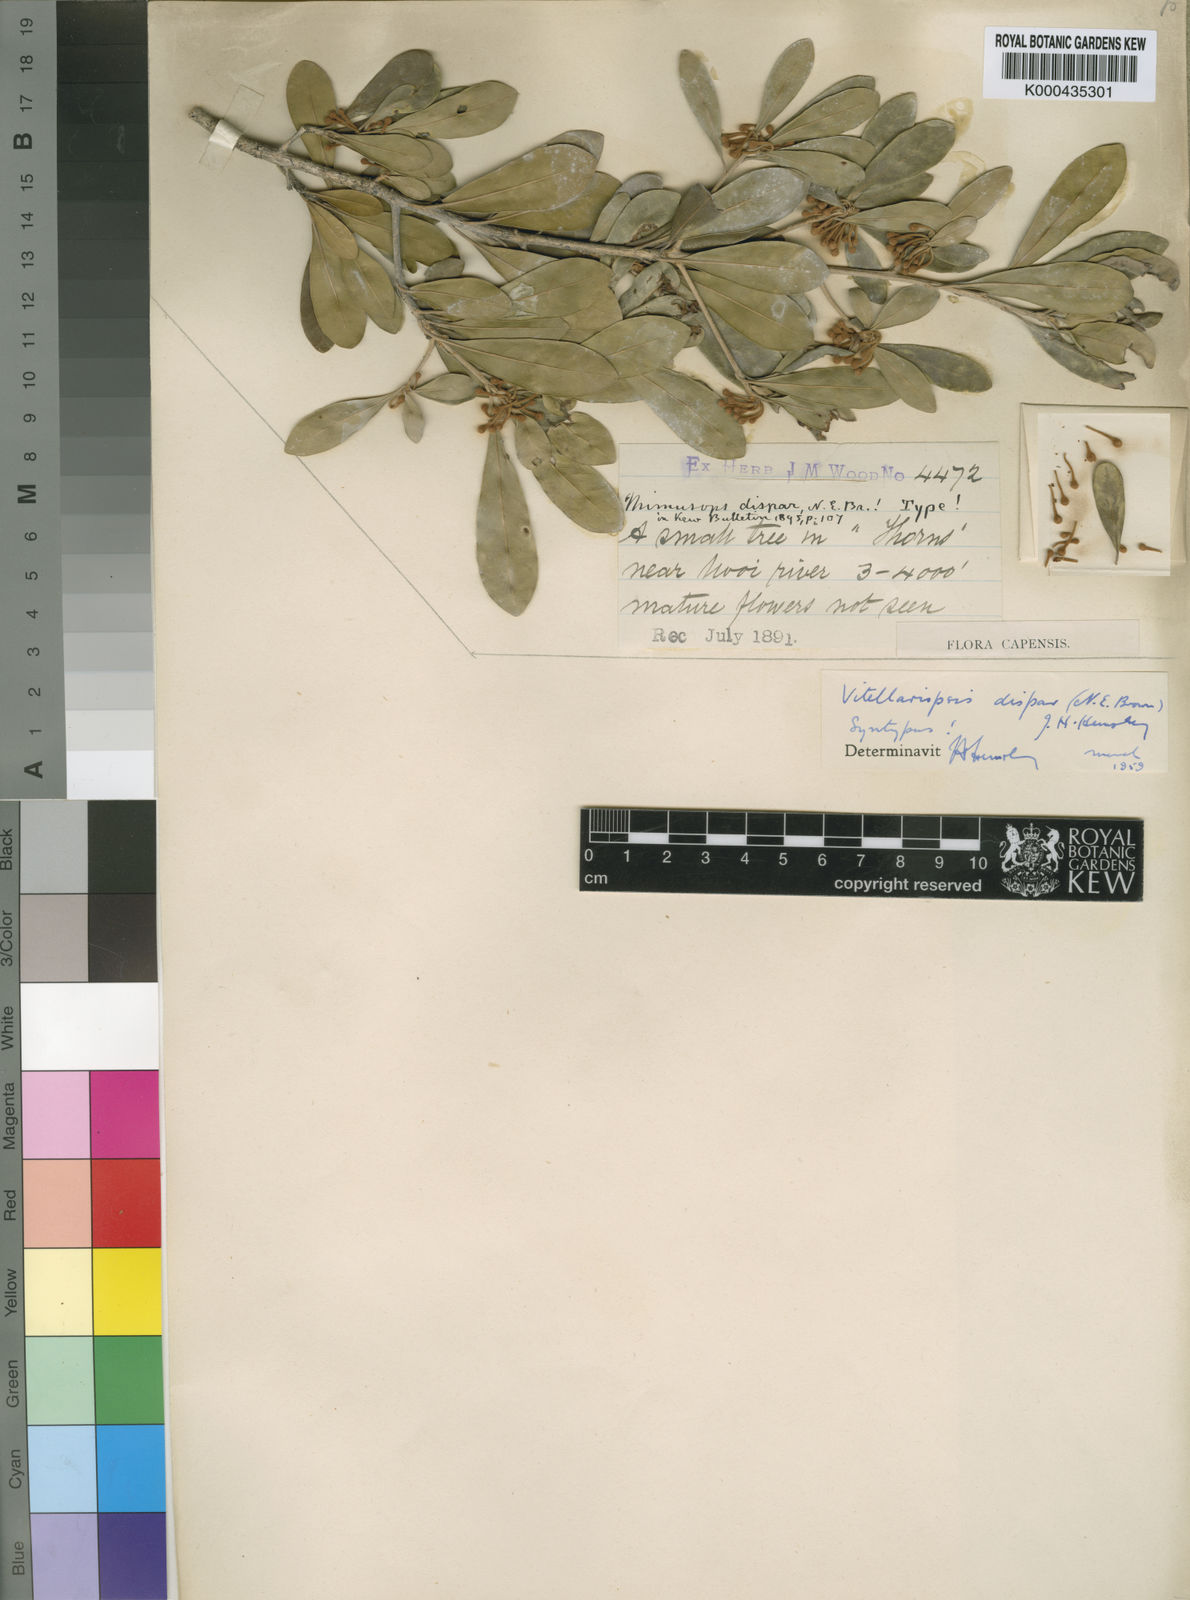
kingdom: Plantae
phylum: Tracheophyta
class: Magnoliopsida
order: Ericales
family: Sapotaceae
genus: Vitellariopsis
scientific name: Vitellariopsis
